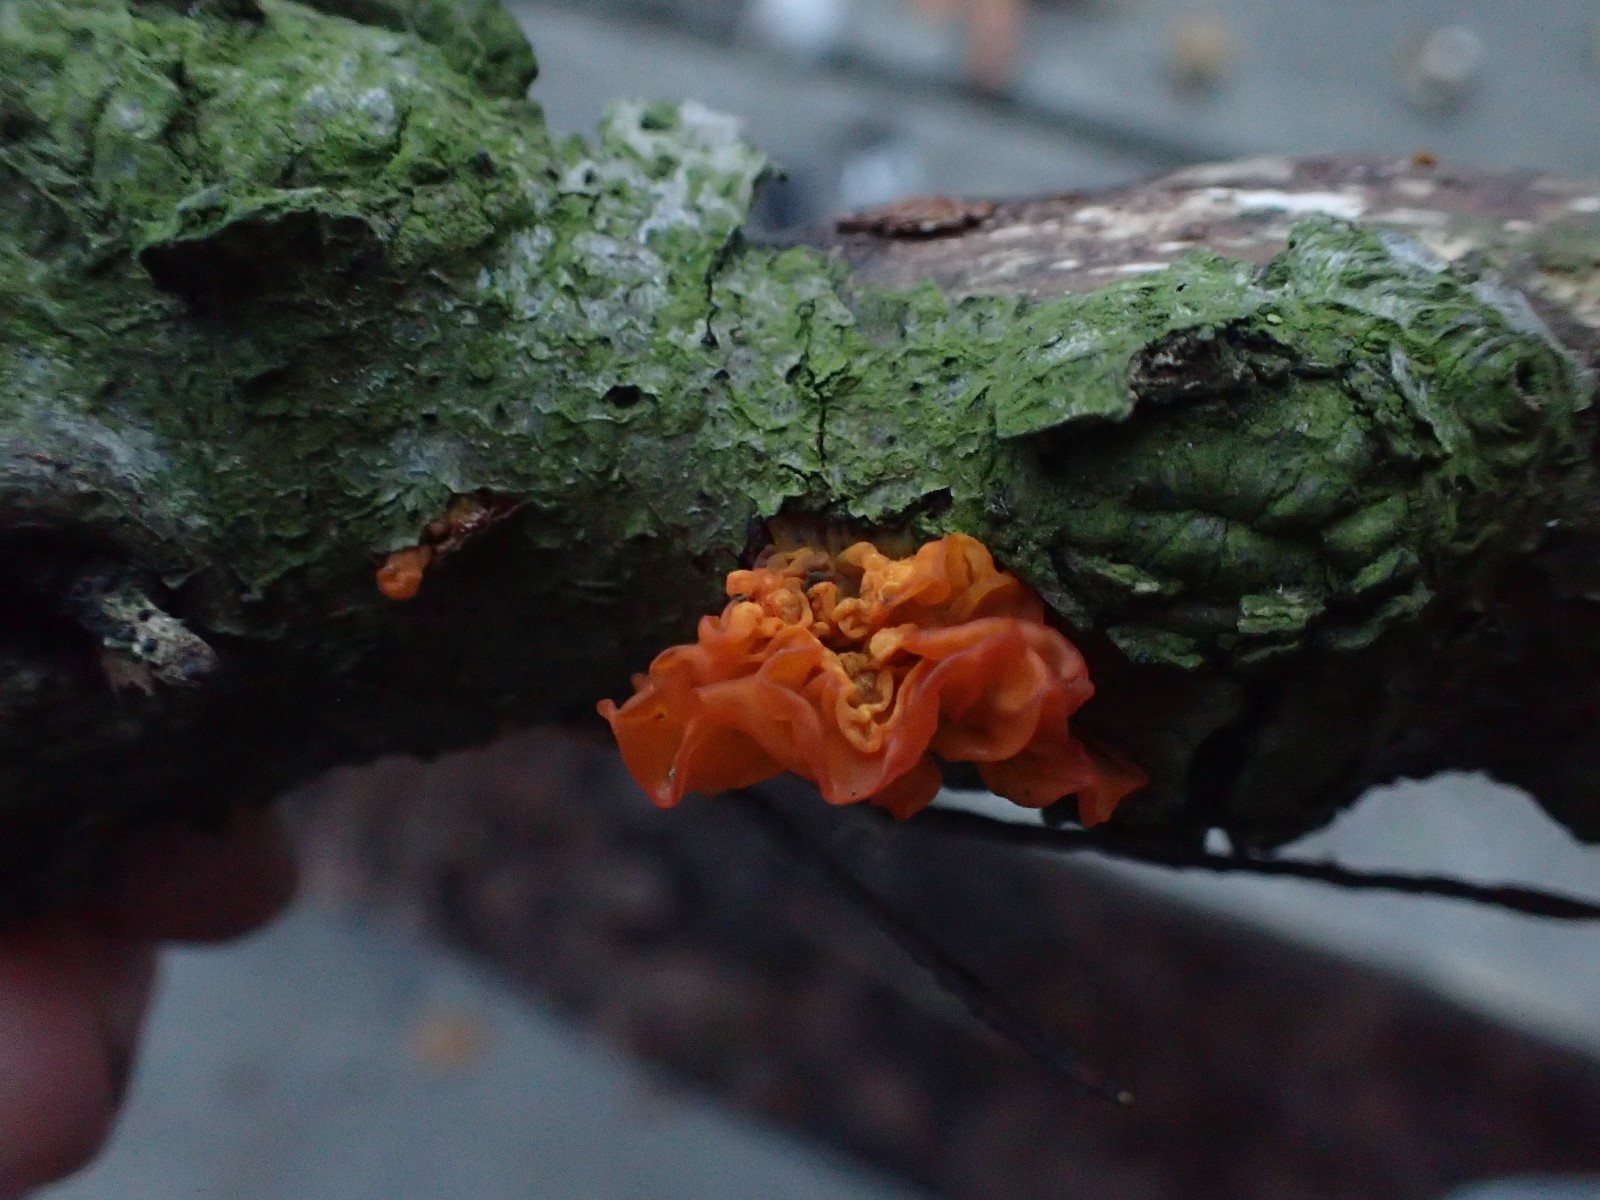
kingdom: Fungi
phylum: Basidiomycota
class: Tremellomycetes
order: Tremellales
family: Tremellaceae
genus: Tremella
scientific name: Tremella mesenterica
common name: gul bævresvamp
